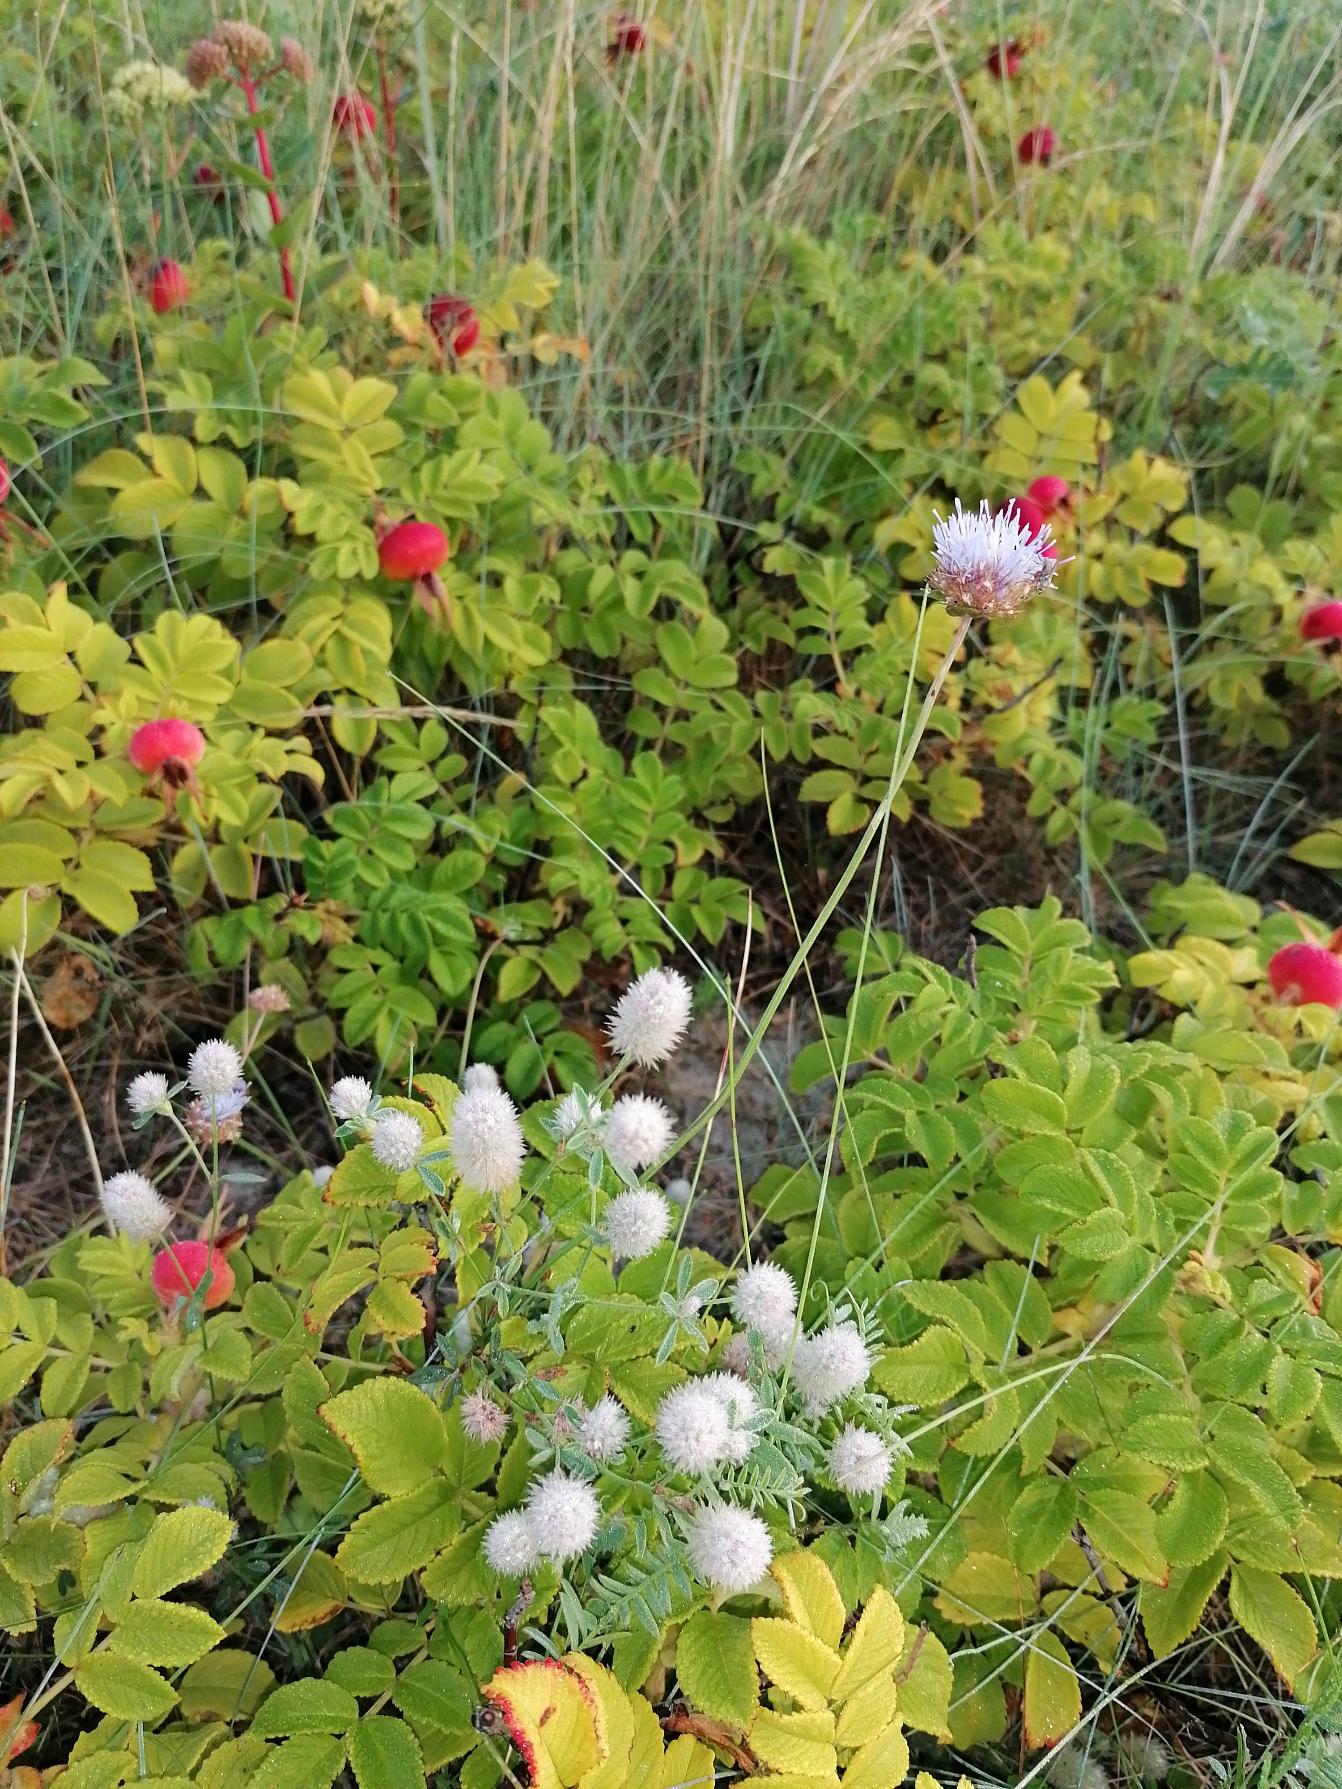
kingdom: Plantae
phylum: Tracheophyta
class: Magnoliopsida
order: Asterales
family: Campanulaceae
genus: Jasione
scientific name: Jasione montana
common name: Blåmunke
